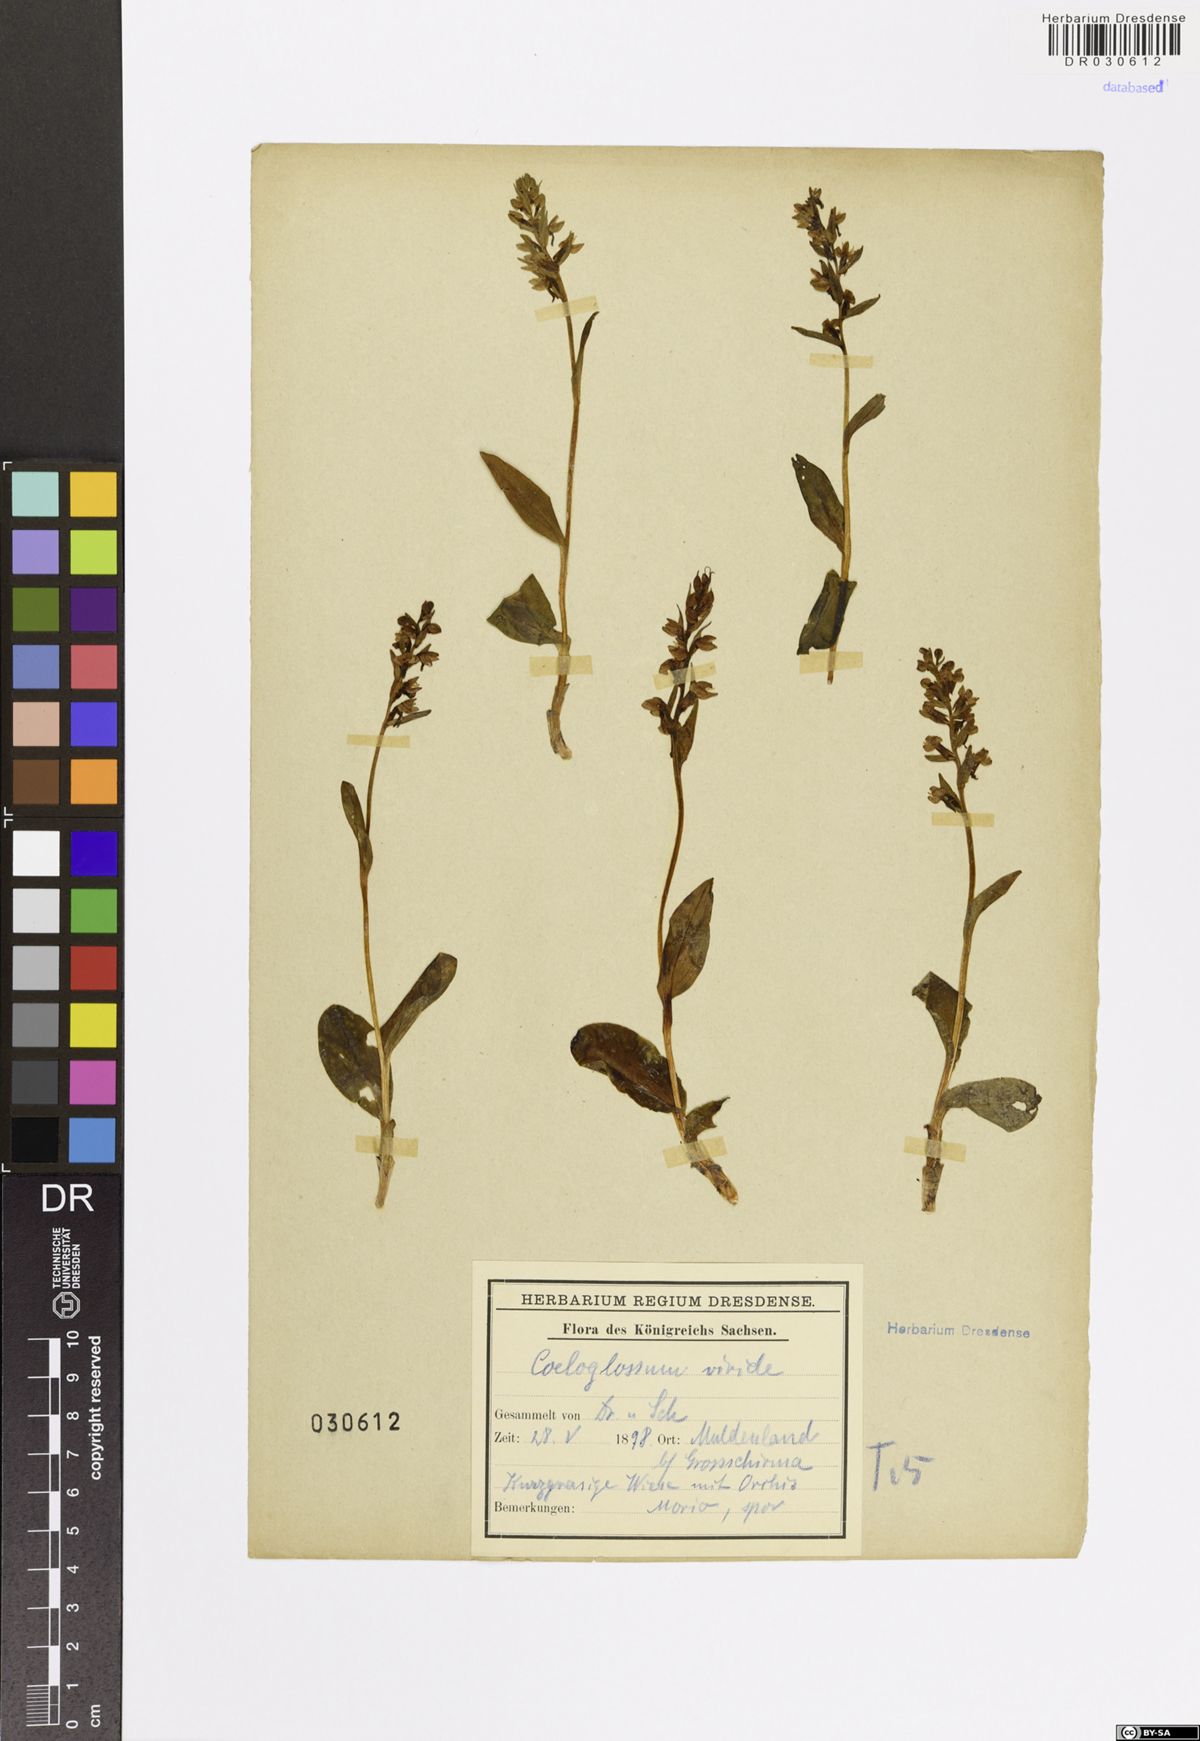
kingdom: Plantae
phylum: Tracheophyta
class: Liliopsida
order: Asparagales
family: Orchidaceae
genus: Dactylorhiza
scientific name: Dactylorhiza viridis
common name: Longbract frog orchid
